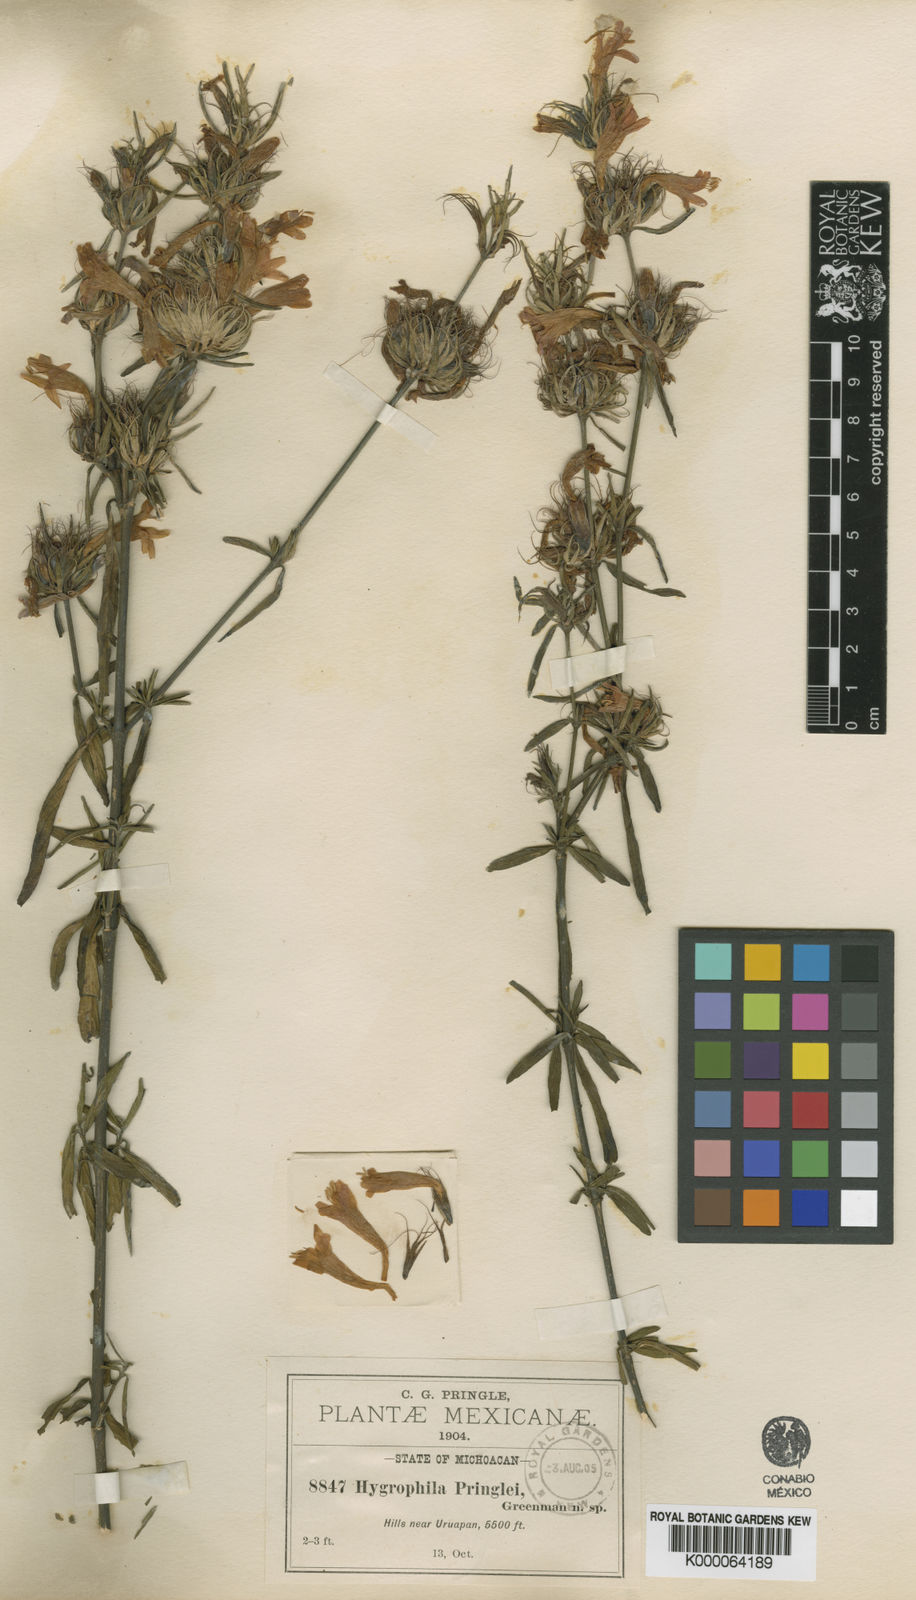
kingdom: Plantae
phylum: Tracheophyta
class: Magnoliopsida
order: Lamiales
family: Acanthaceae
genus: Dyschoriste
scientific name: Dyschoriste angustifolia
